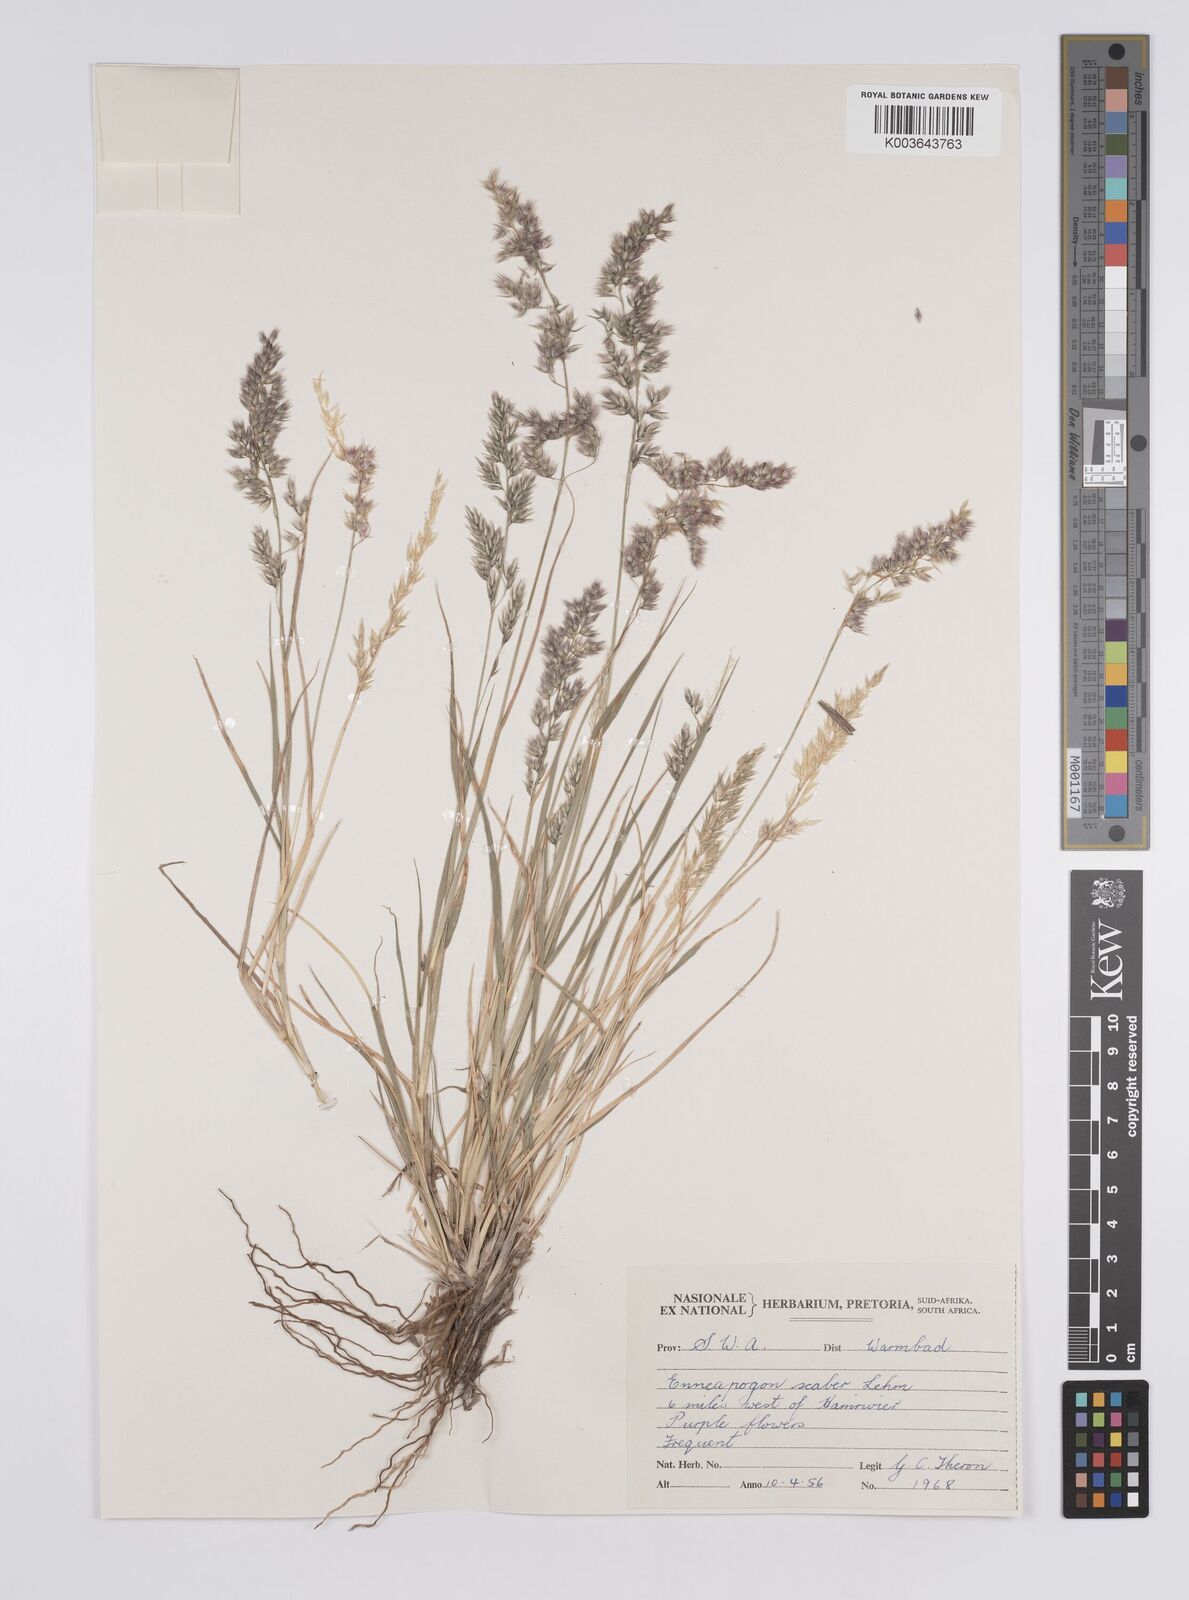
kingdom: Plantae
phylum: Tracheophyta
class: Liliopsida
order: Poales
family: Poaceae
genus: Enneapogon
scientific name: Enneapogon scaber
